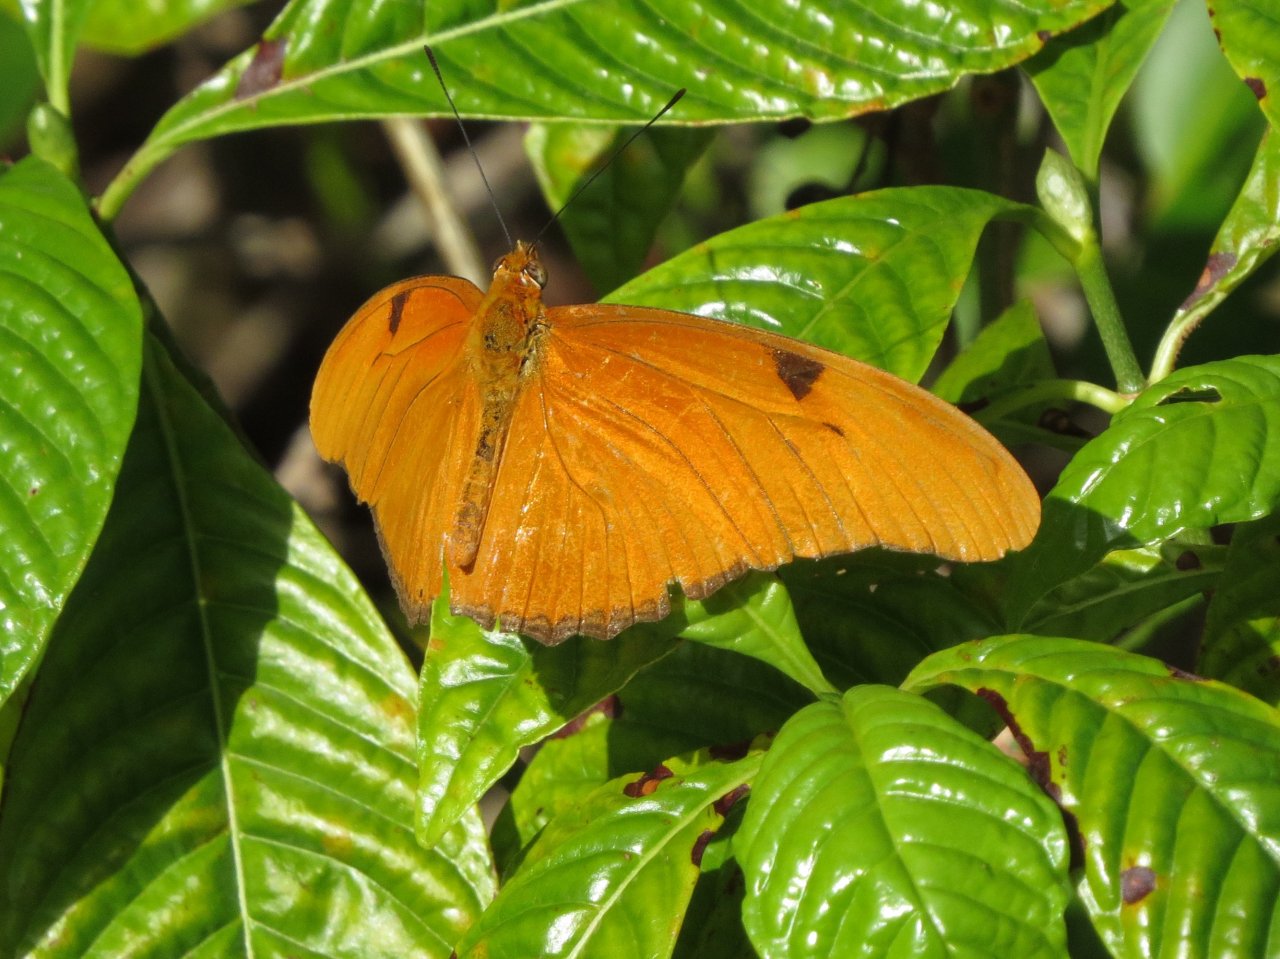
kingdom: Animalia
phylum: Arthropoda
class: Insecta
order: Lepidoptera
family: Nymphalidae
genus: Dryas
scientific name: Dryas iulia
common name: Julia
